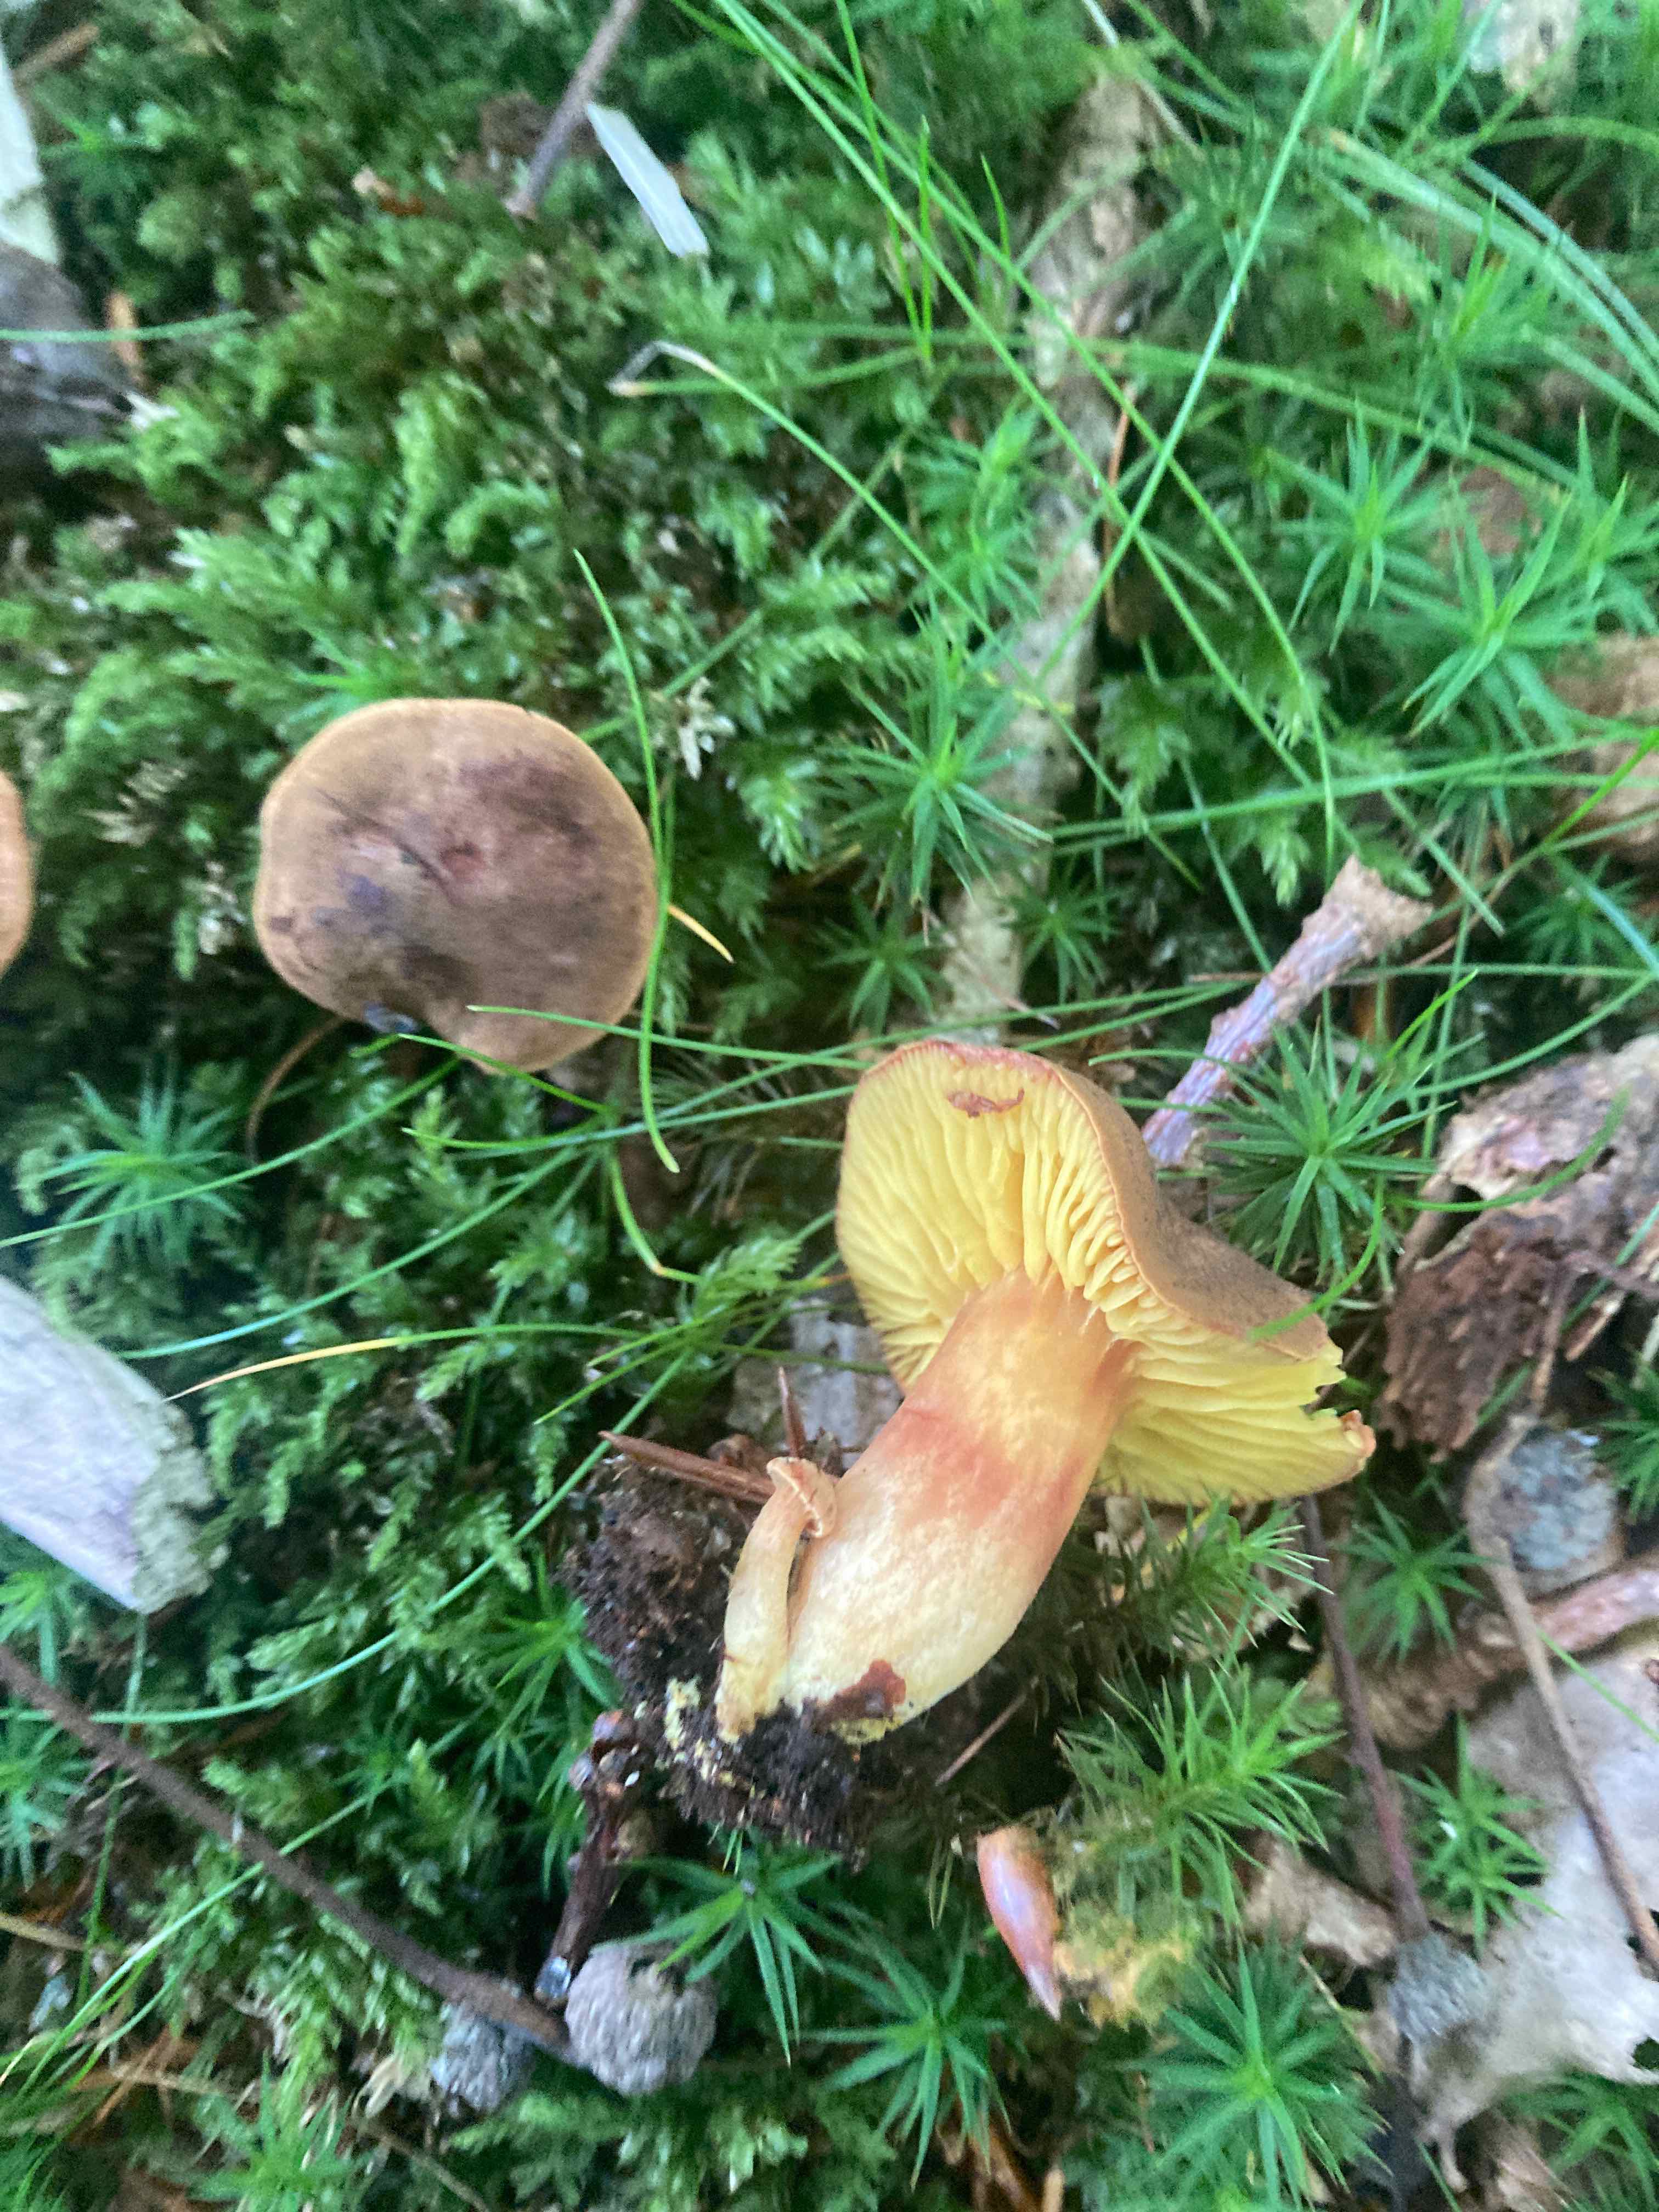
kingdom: Fungi
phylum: Basidiomycota
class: Agaricomycetes
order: Boletales
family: Boletaceae
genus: Phylloporus
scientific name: Phylloporus pelletieri
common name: lamelrørhat
